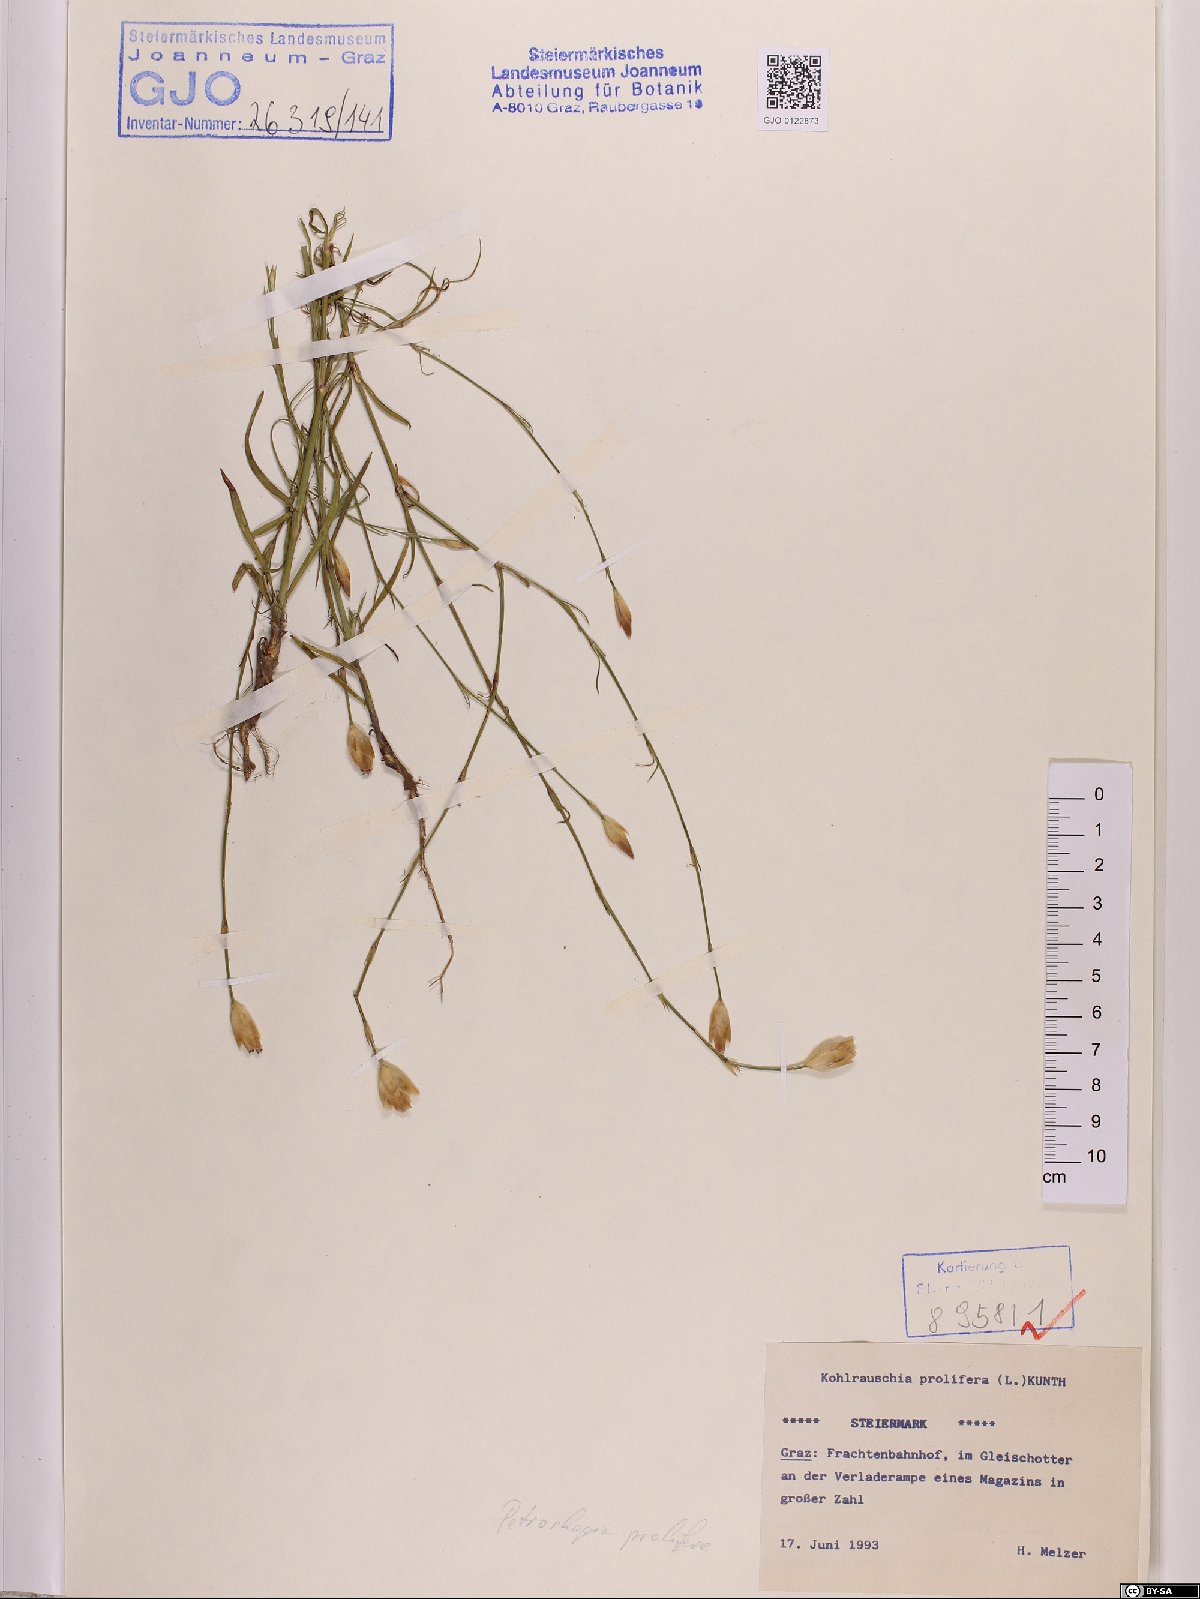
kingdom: Plantae
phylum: Tracheophyta
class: Magnoliopsida
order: Caryophyllales
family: Caryophyllaceae
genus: Petrorhagia
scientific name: Petrorhagia prolifera
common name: Proliferous pink
